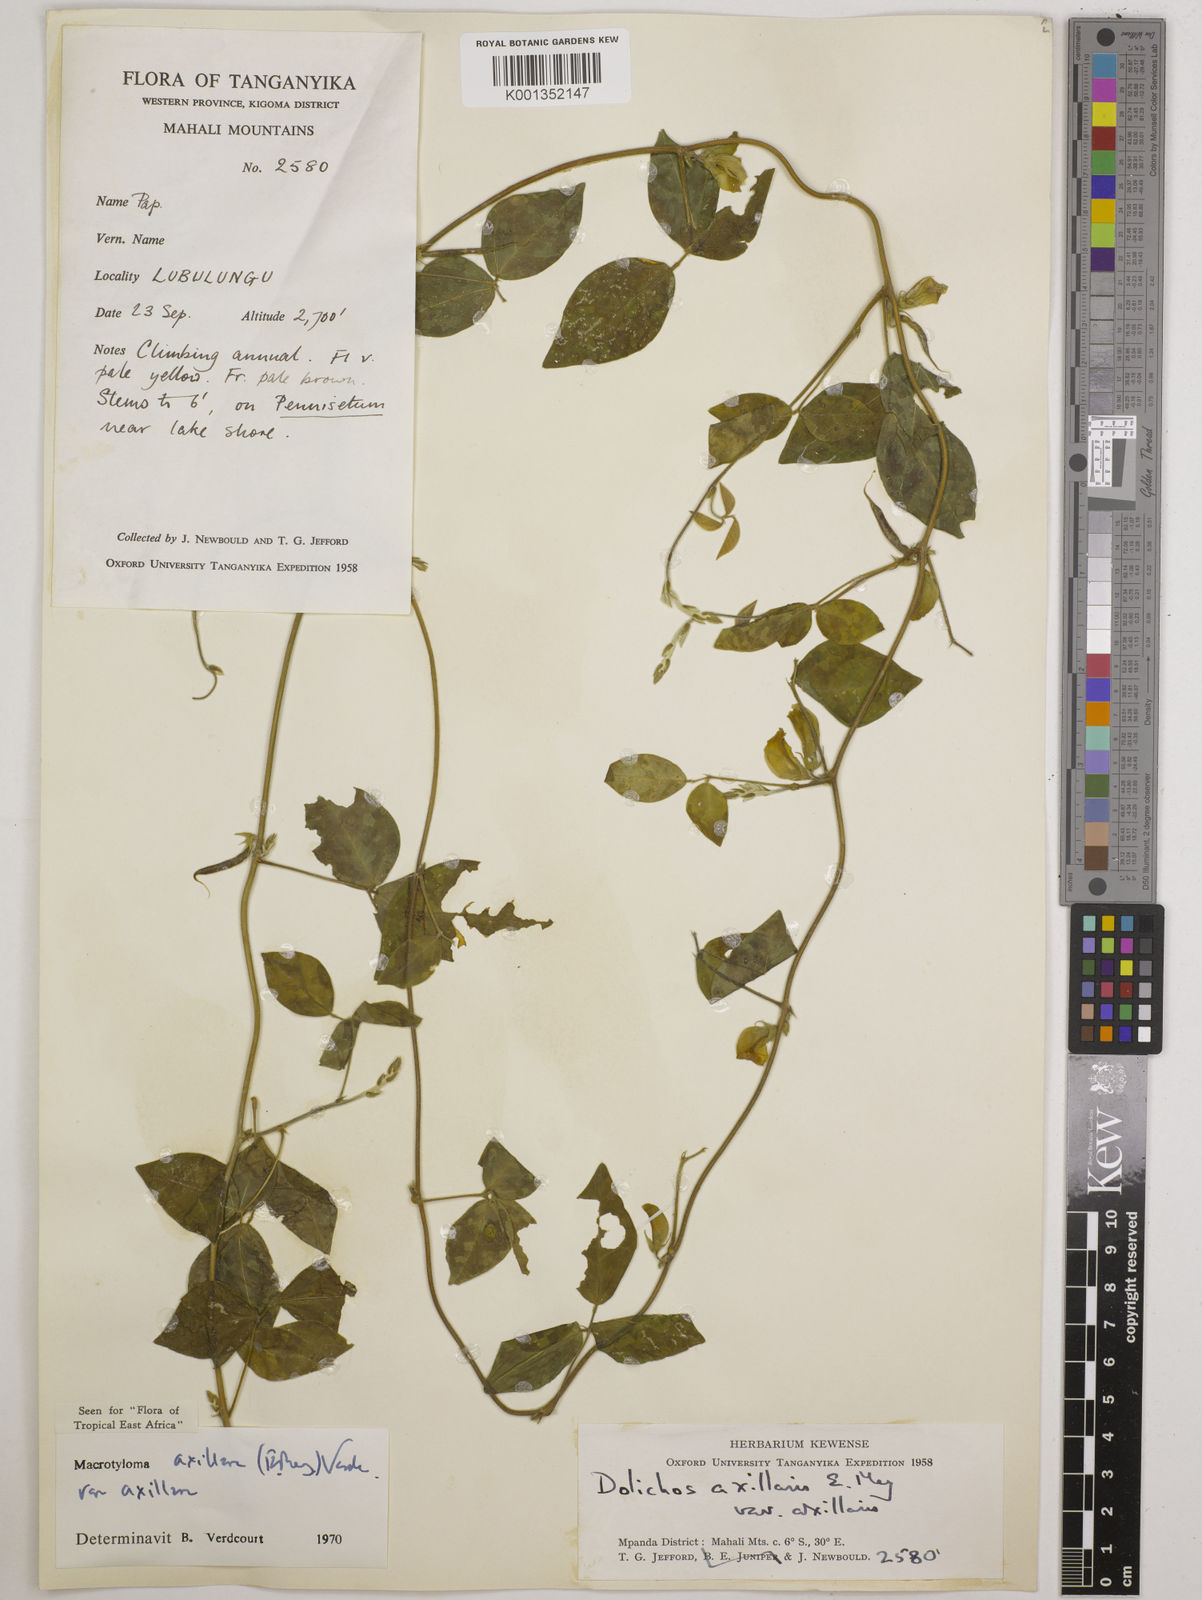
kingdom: Plantae
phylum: Tracheophyta
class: Magnoliopsida
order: Fabales
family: Fabaceae
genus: Macrotyloma
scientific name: Macrotyloma axillare
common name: Perennial horsegram
